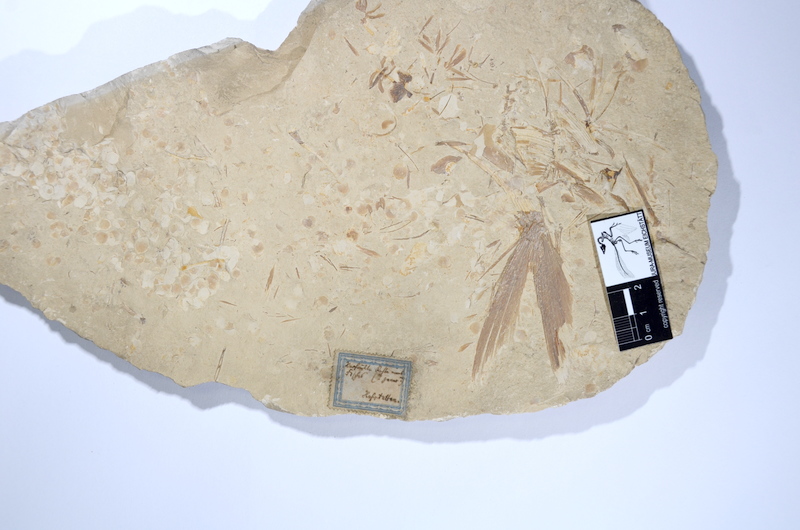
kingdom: Animalia
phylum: Chordata
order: Amiiformes
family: Caturidae
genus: Caturus
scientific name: Caturus
